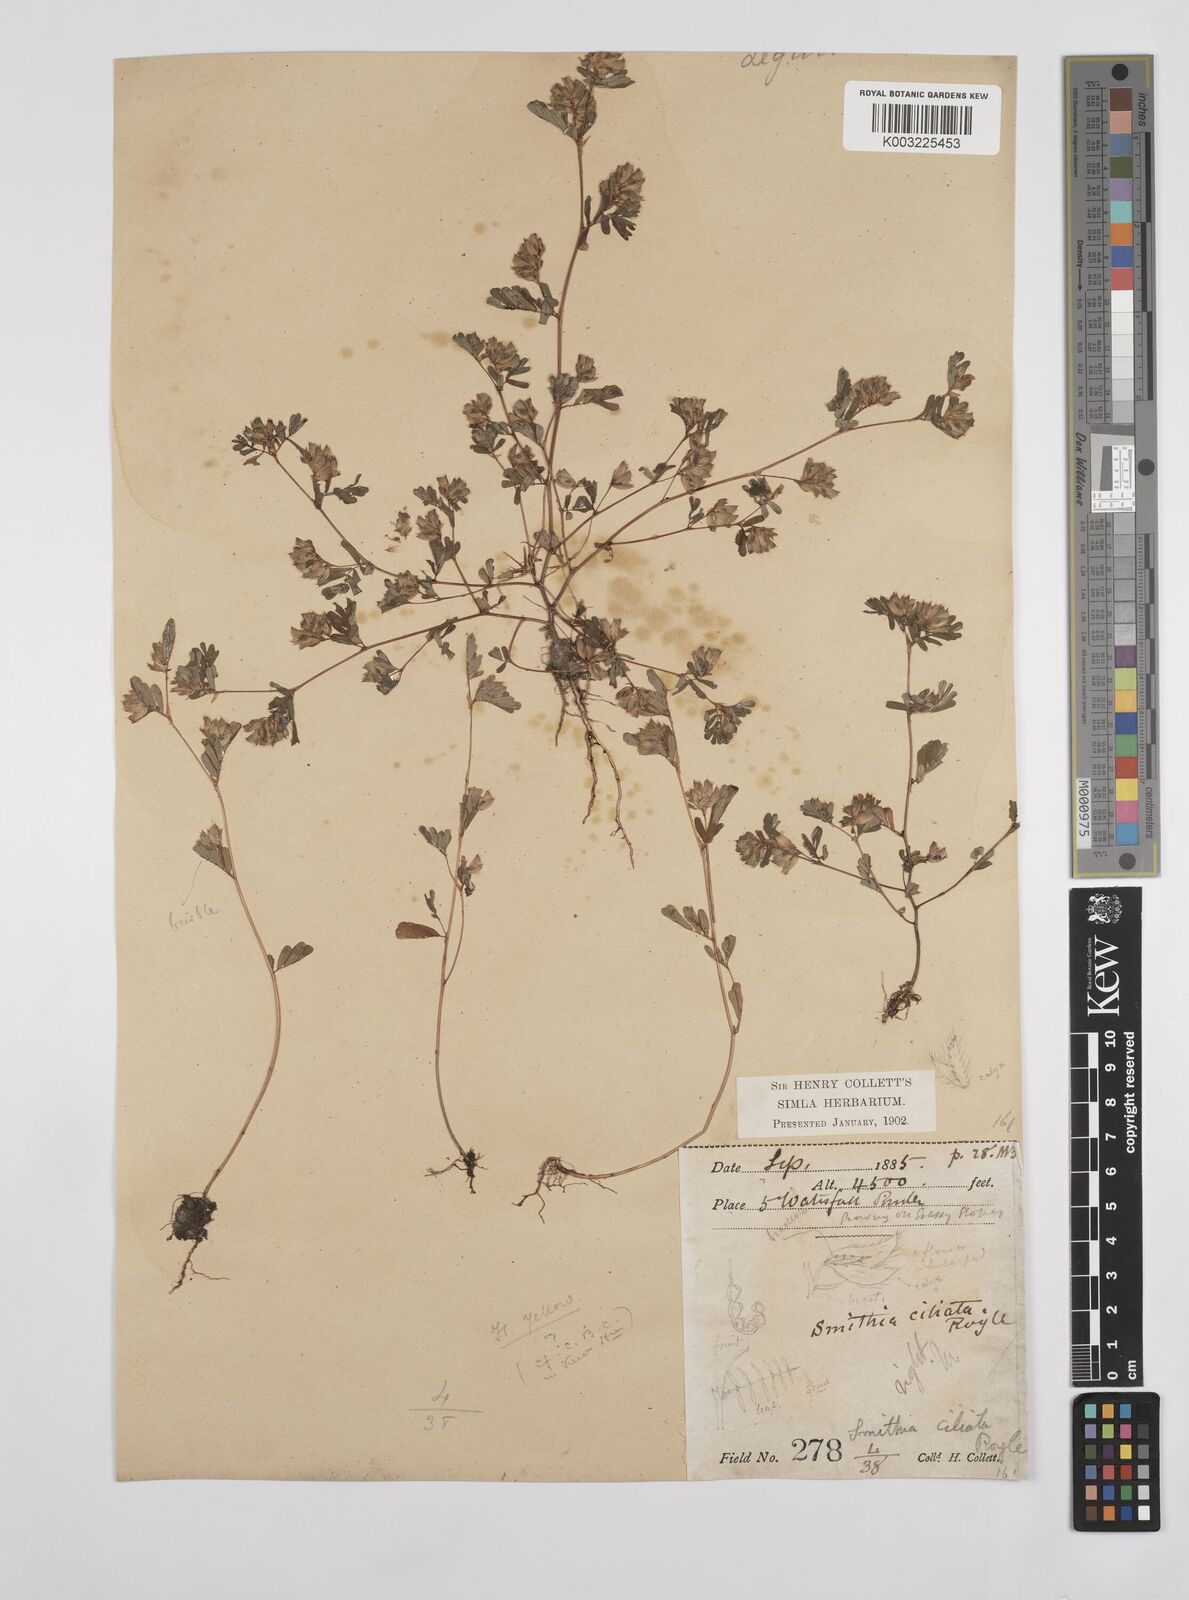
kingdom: Plantae
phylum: Tracheophyta
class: Magnoliopsida
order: Fabales
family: Fabaceae
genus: Smithia
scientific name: Smithia ciliata
